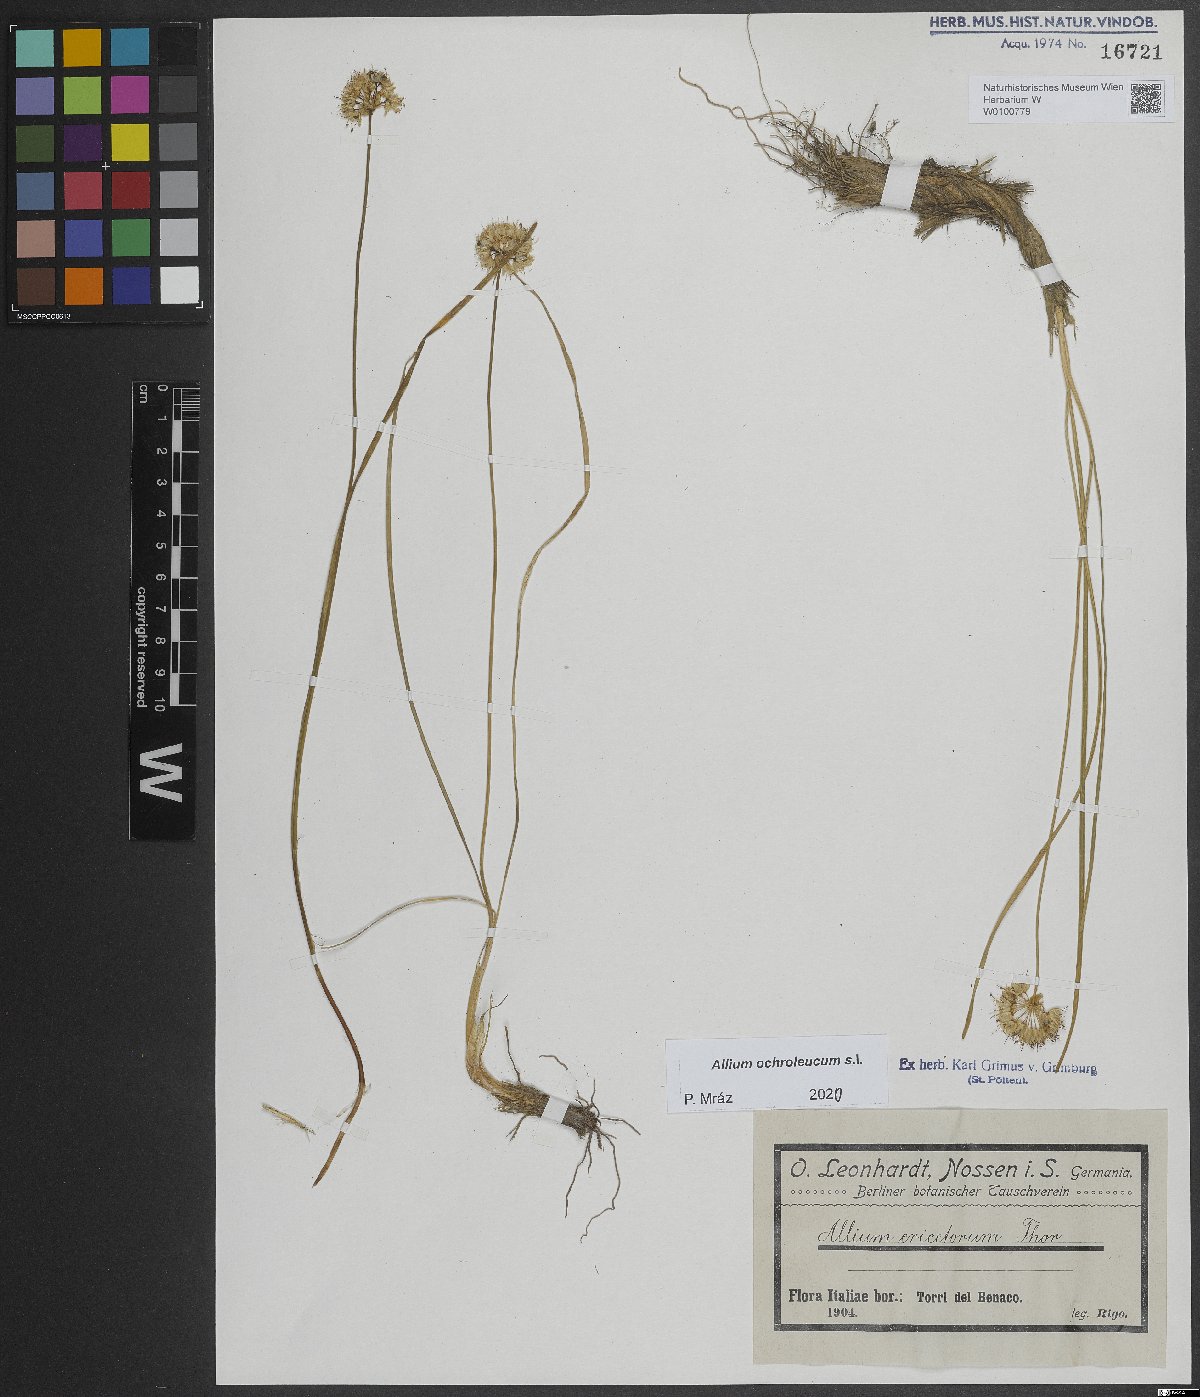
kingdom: Plantae
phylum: Tracheophyta
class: Liliopsida
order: Asparagales
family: Amaryllidaceae
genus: Allium
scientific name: Allium ericetorum
